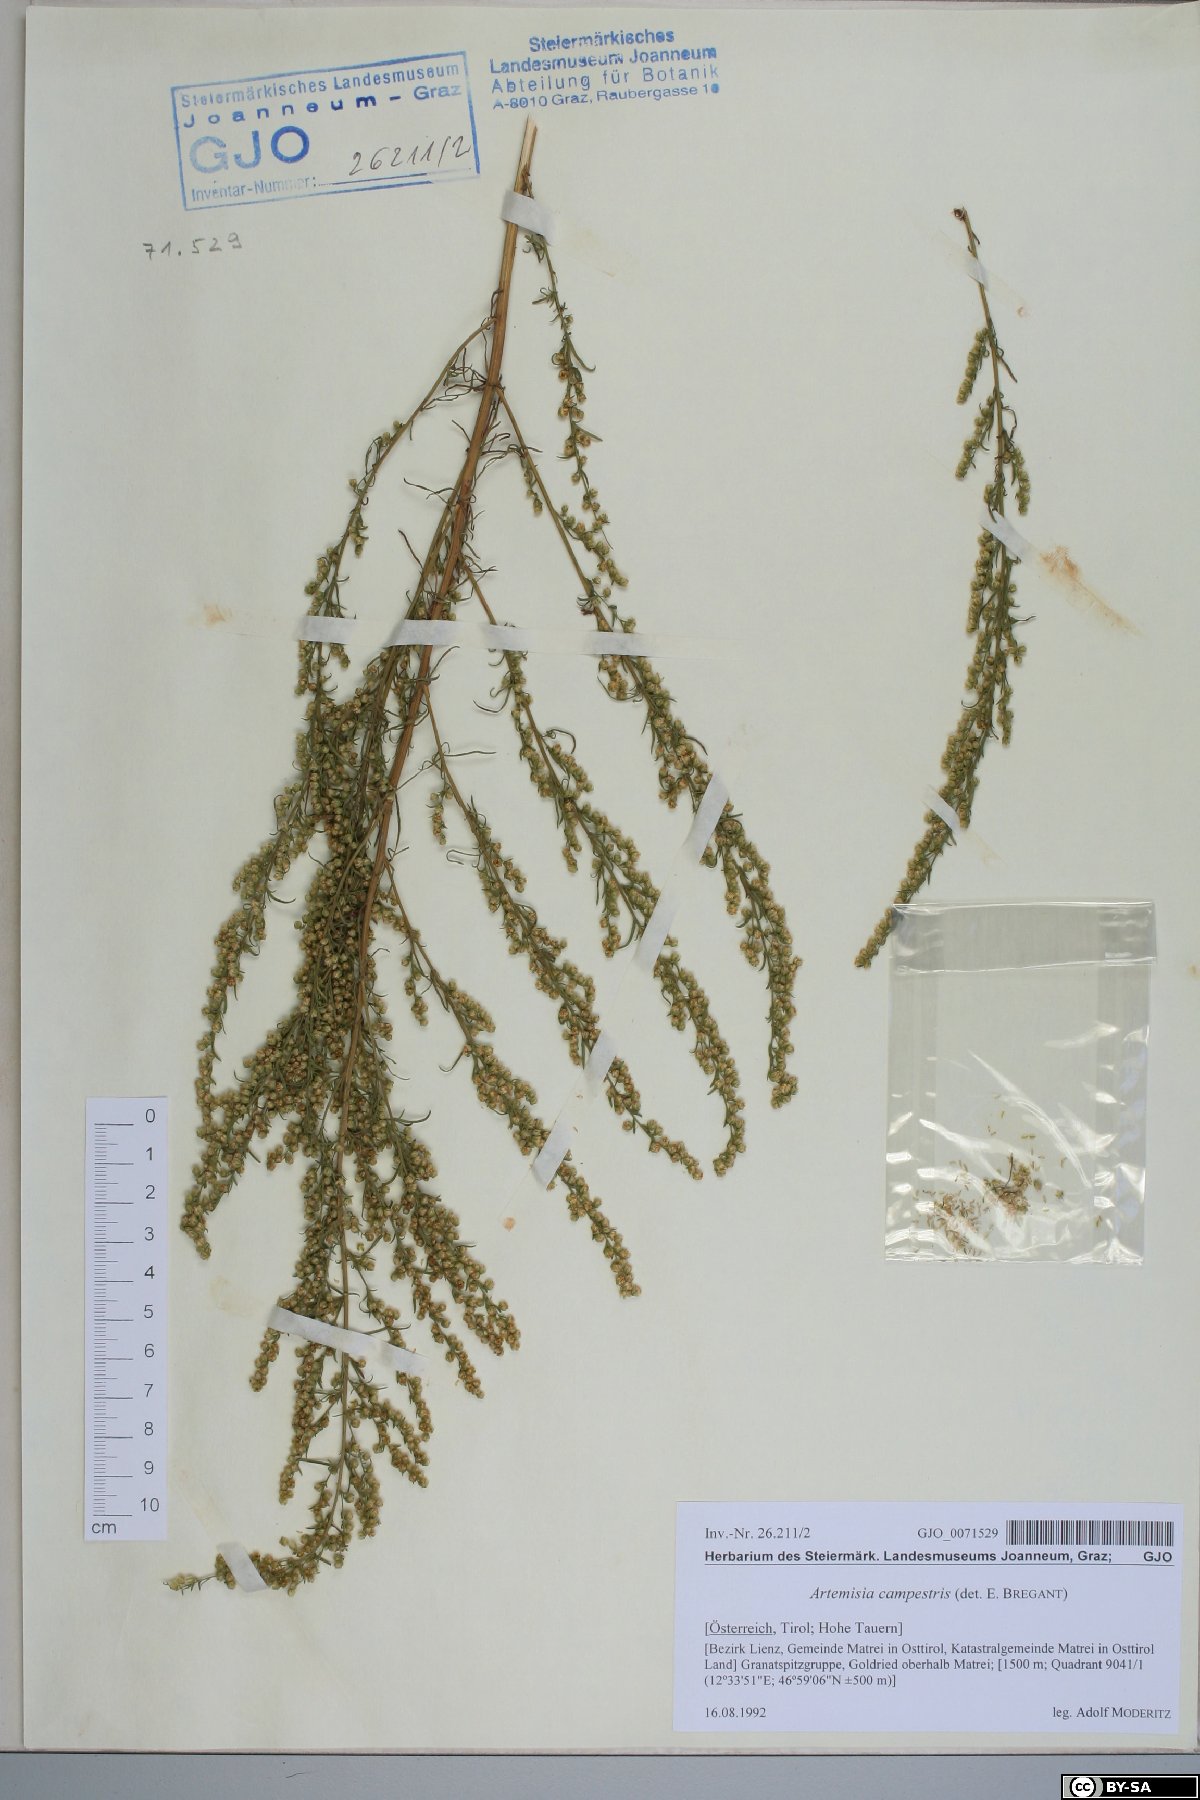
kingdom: Plantae
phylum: Tracheophyta
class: Magnoliopsida
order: Asterales
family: Asteraceae
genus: Artemisia
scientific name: Artemisia campestris
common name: Field wormwood
